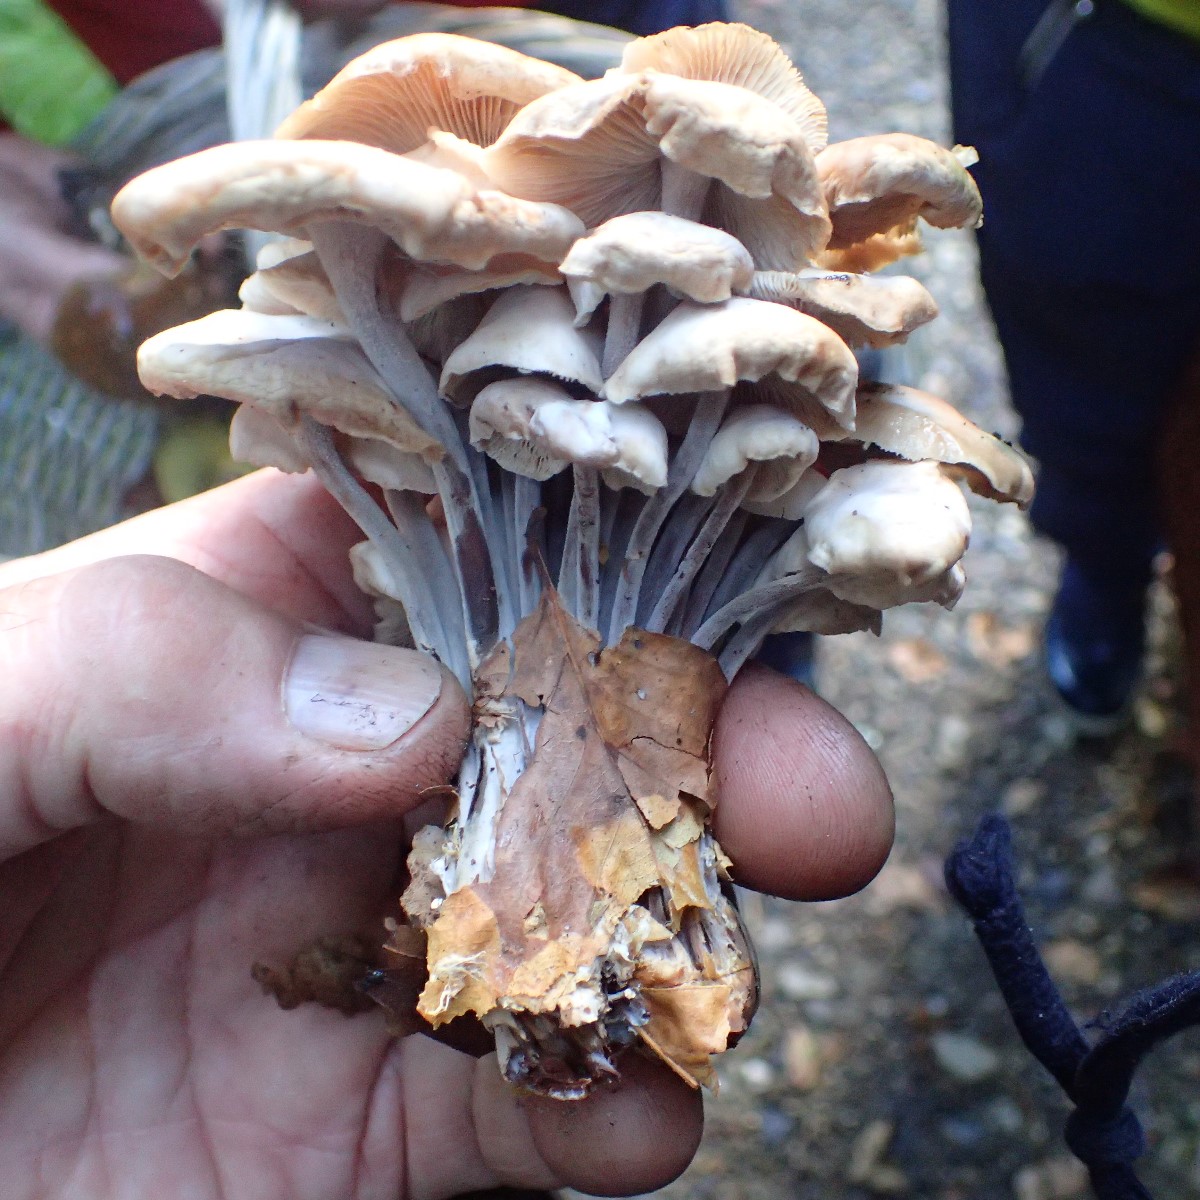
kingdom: Fungi
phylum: Basidiomycota
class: Agaricomycetes
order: Agaricales
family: Omphalotaceae
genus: Collybiopsis
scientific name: Collybiopsis confluens
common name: knippe-fladhat
